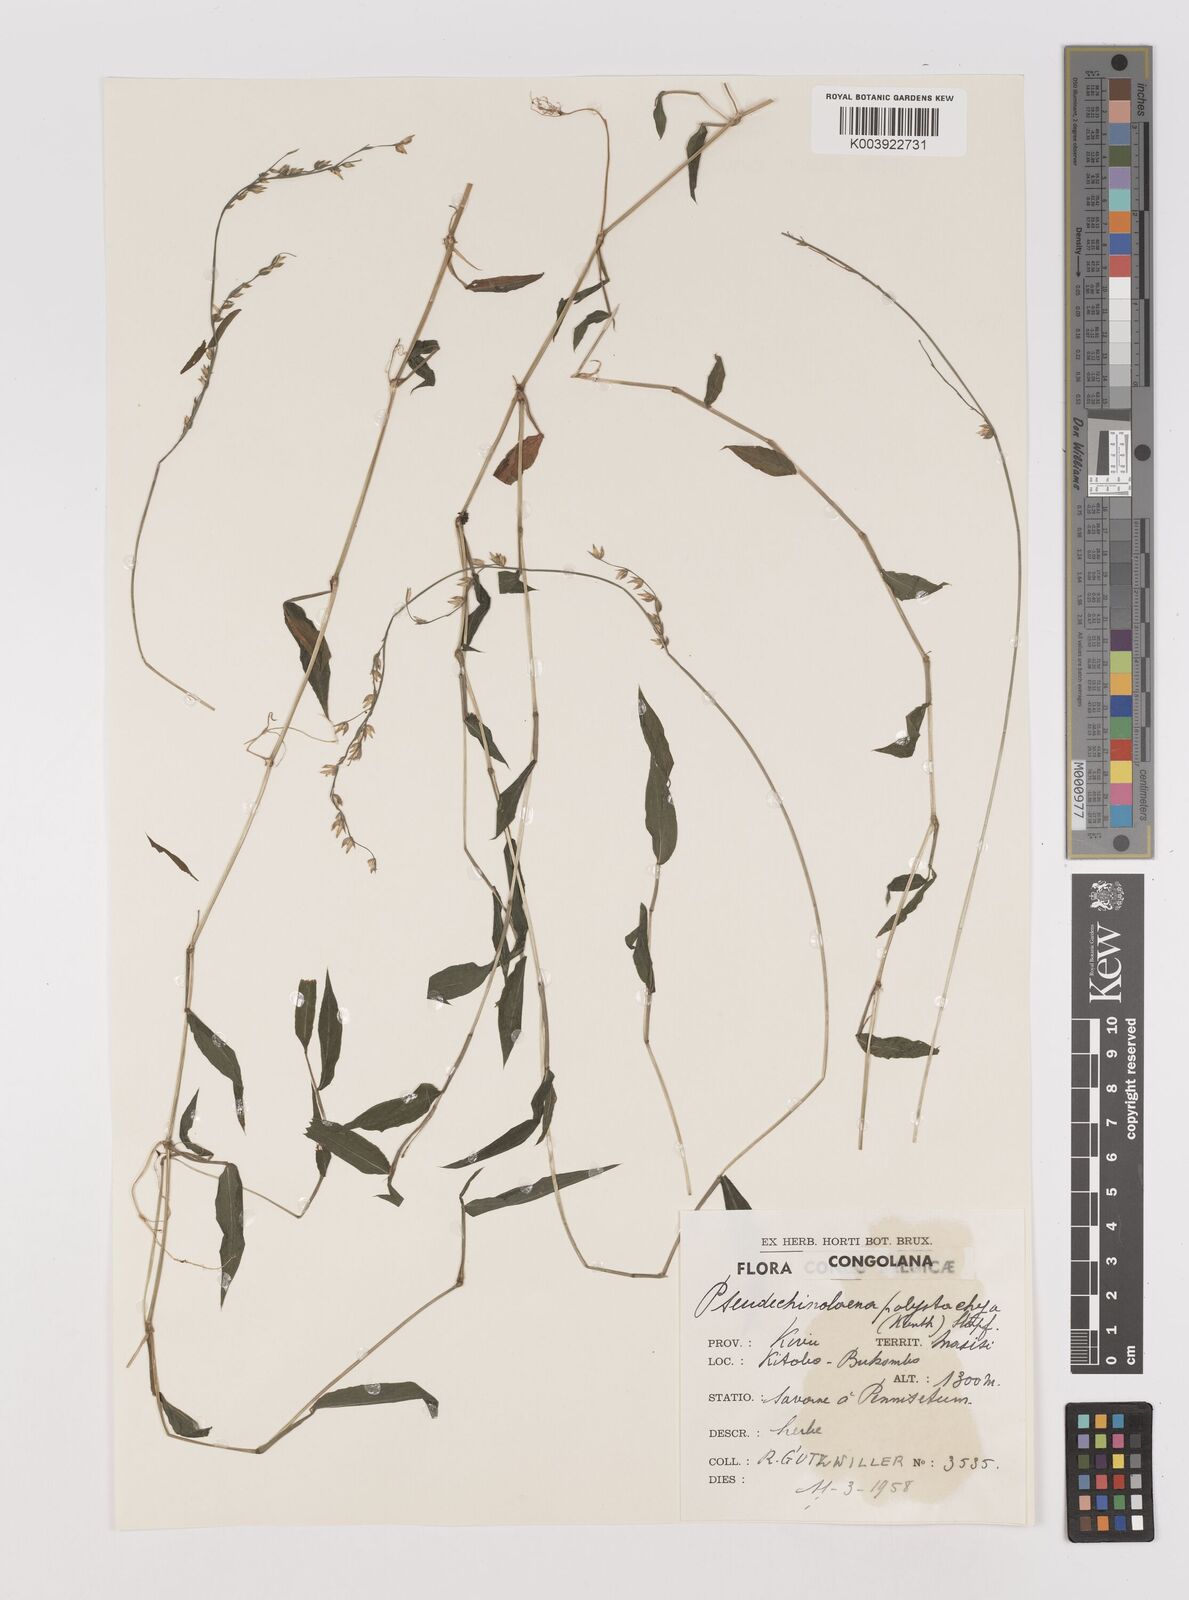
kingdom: Plantae
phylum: Tracheophyta
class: Liliopsida
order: Poales
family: Poaceae
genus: Pseudechinolaena
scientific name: Pseudechinolaena polystachya
